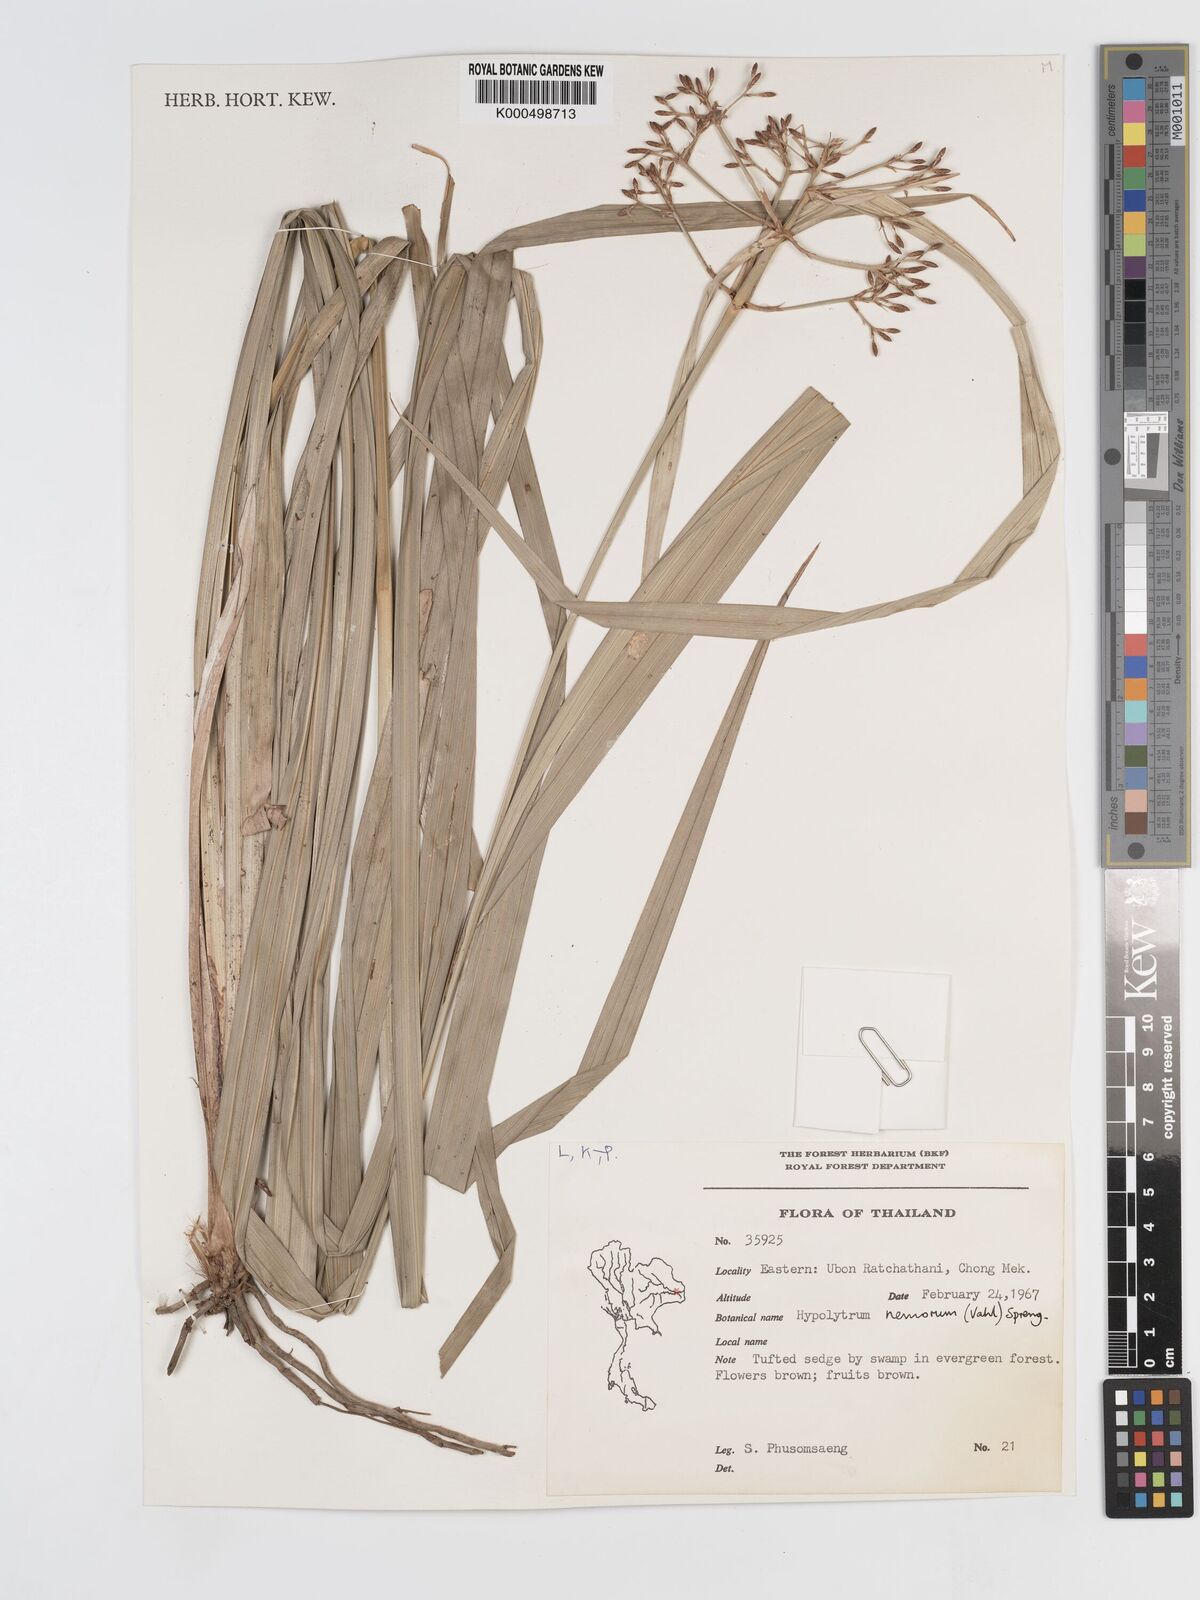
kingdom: Plantae
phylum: Tracheophyta
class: Liliopsida
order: Poales
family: Cyperaceae
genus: Hypolytrum
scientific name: Hypolytrum nemorum
